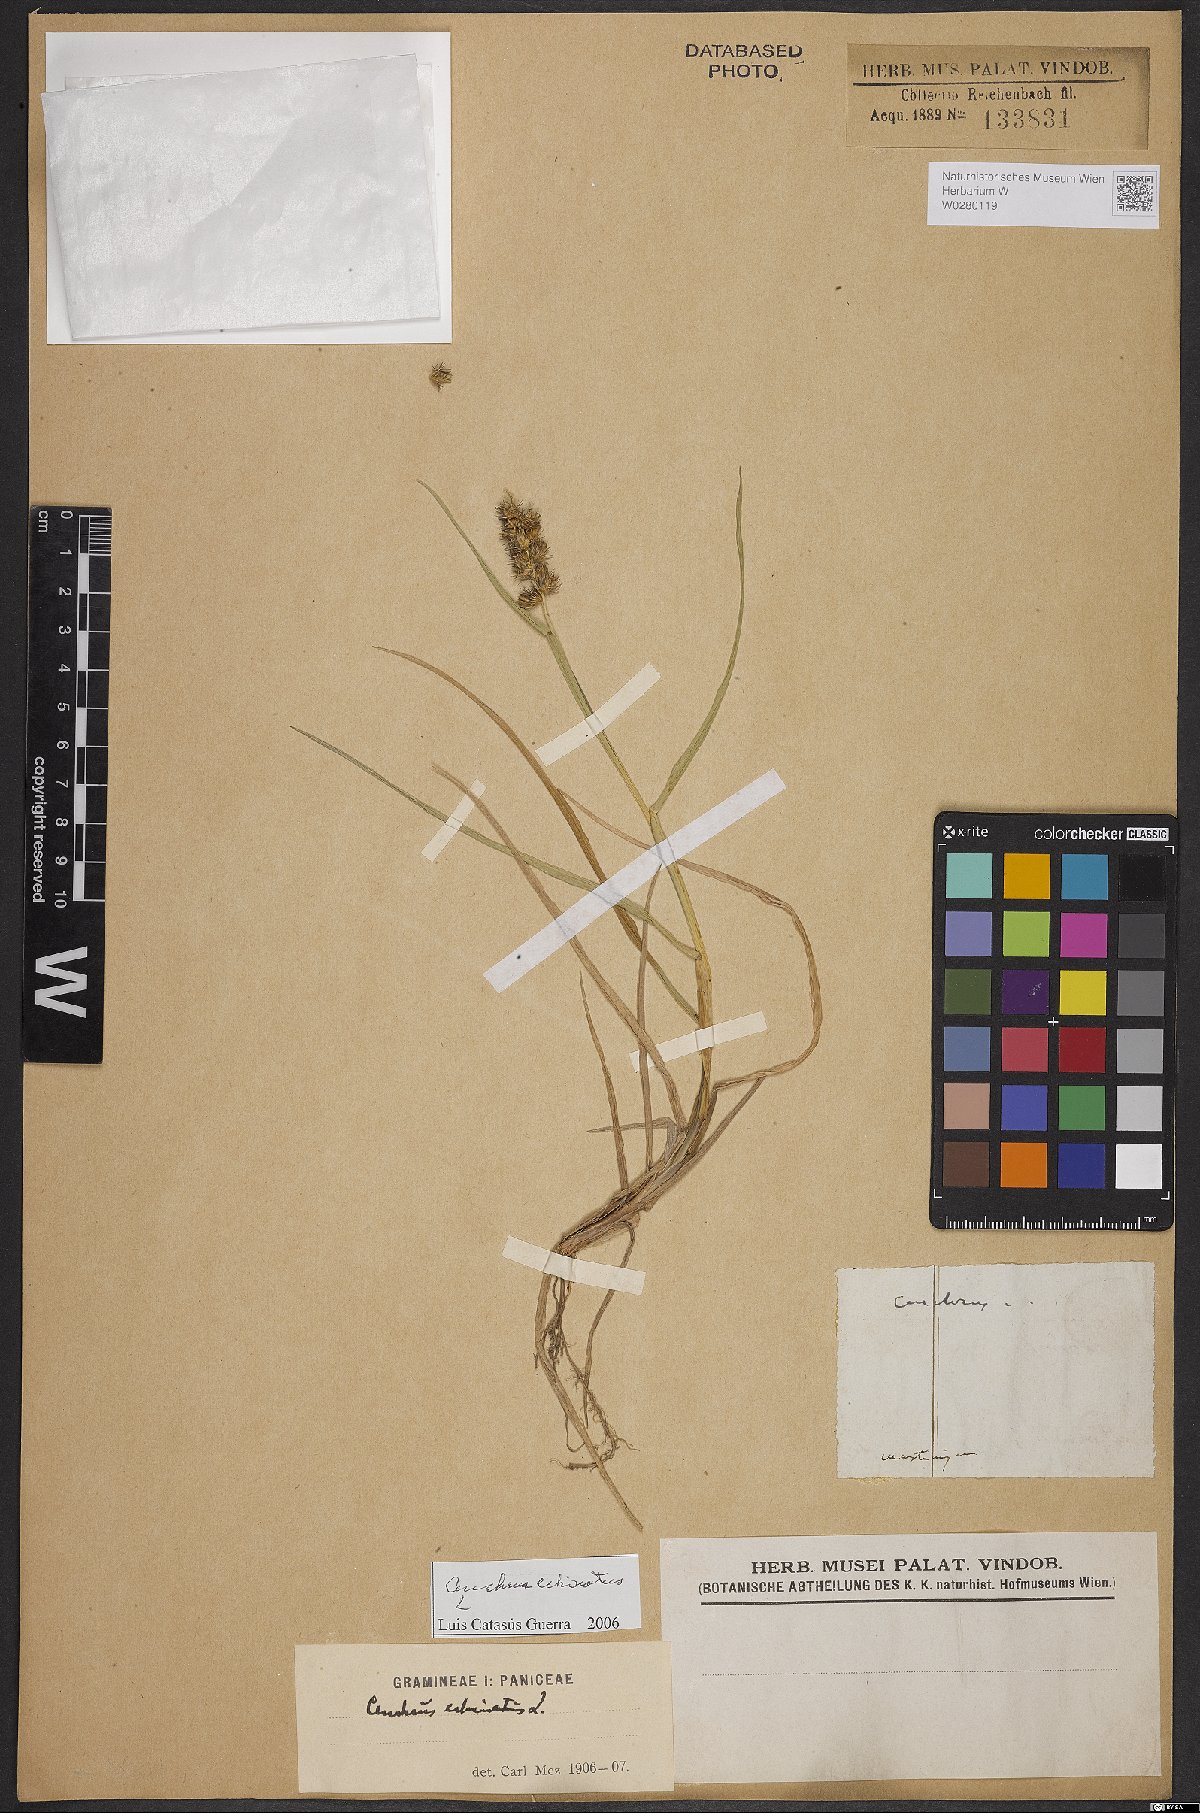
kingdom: Plantae
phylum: Tracheophyta
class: Liliopsida
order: Poales
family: Poaceae
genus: Cenchrus
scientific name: Cenchrus echinatus
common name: Southern sandbur
